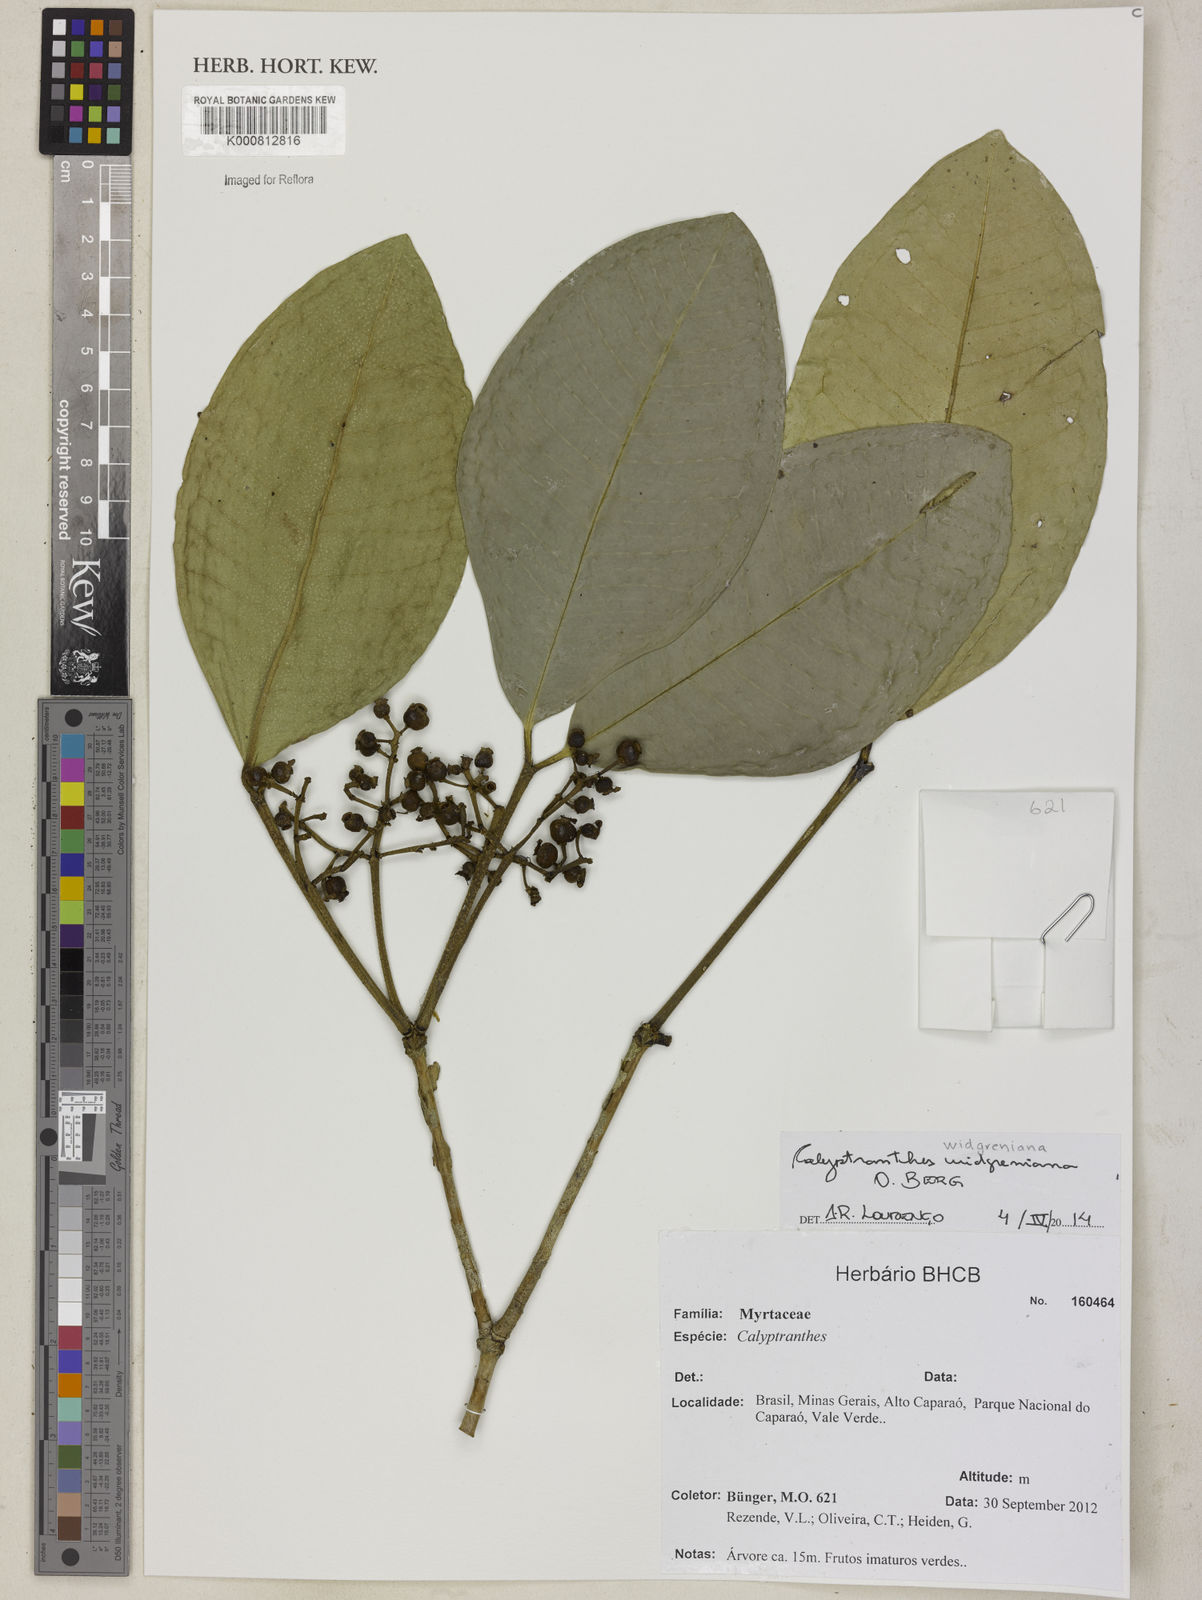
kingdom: Plantae
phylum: Tracheophyta
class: Magnoliopsida
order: Myrtales
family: Myrtaceae
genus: Calyptranthes
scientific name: Calyptranthes widgreniana
